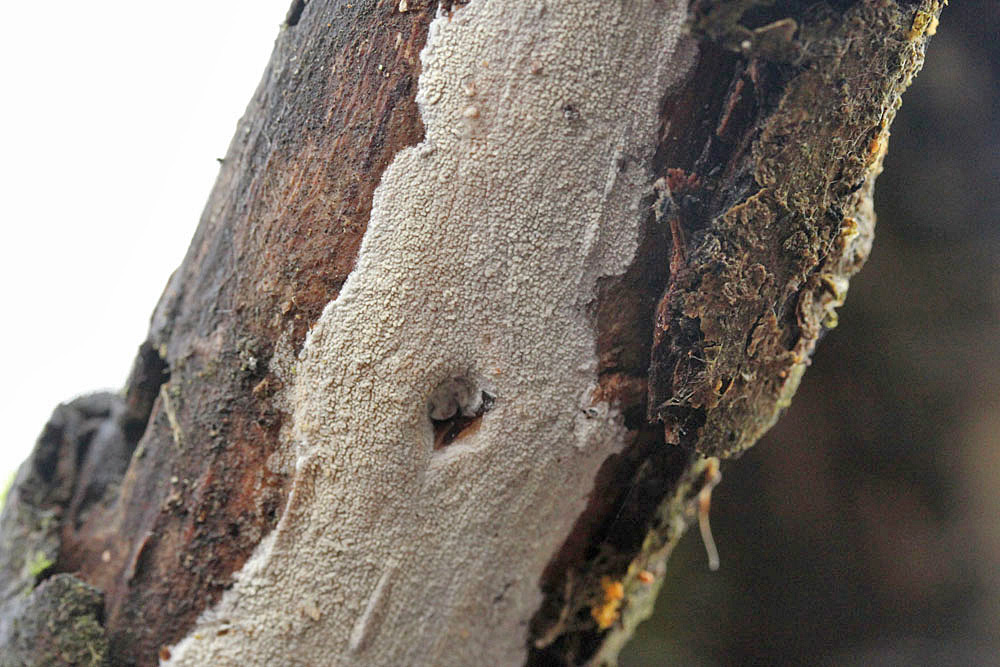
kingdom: Fungi
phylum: Basidiomycota
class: Agaricomycetes
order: Corticiales
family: Corticiaceae
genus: Lyomyces
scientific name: Lyomyces crustosus
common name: vortet hyldehinde
